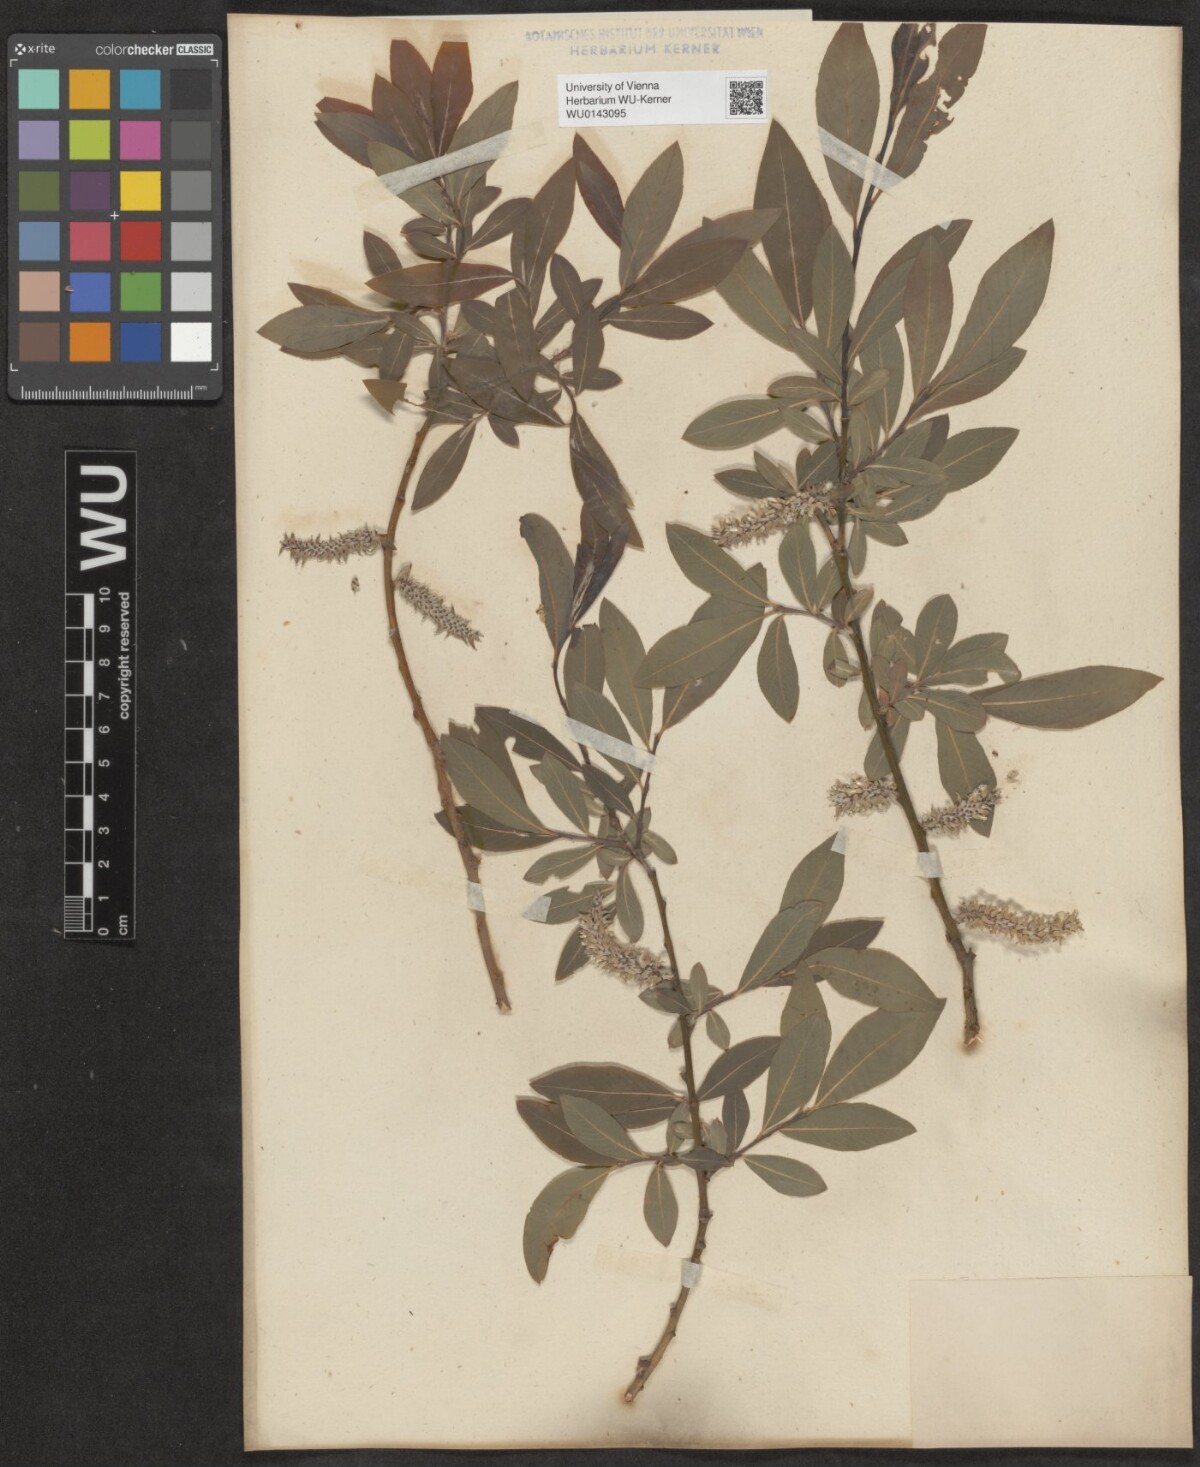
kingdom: Plantae
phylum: Tracheophyta
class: Magnoliopsida
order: Malpighiales
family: Salicaceae
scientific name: Salicaceae
